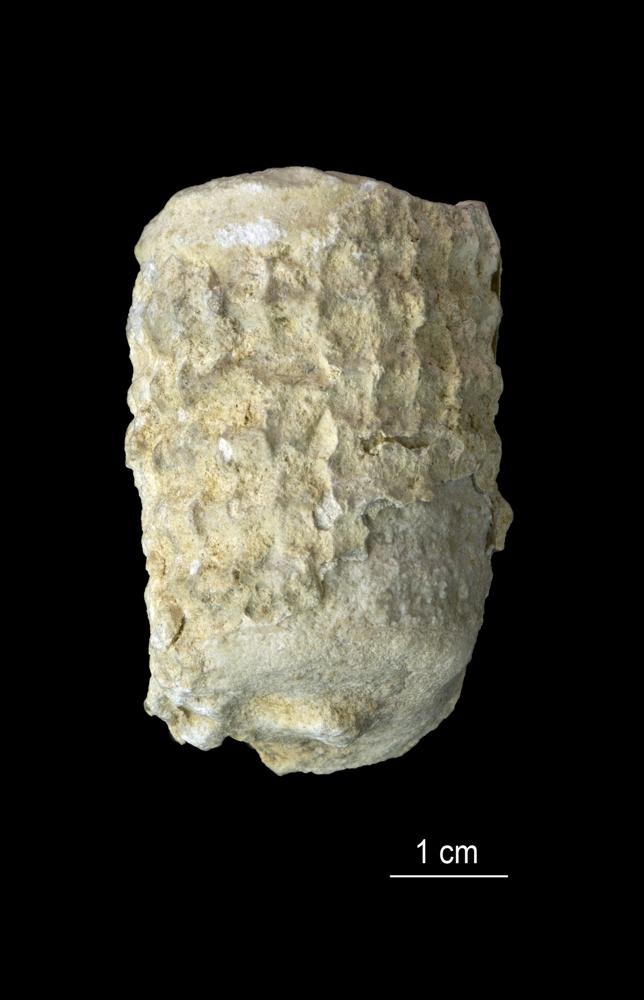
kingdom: Animalia
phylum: Mollusca
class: Cephalopoda
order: Orthocerida
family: Pseudorthoceratidae
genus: Spyroceras
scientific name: Spyroceras
